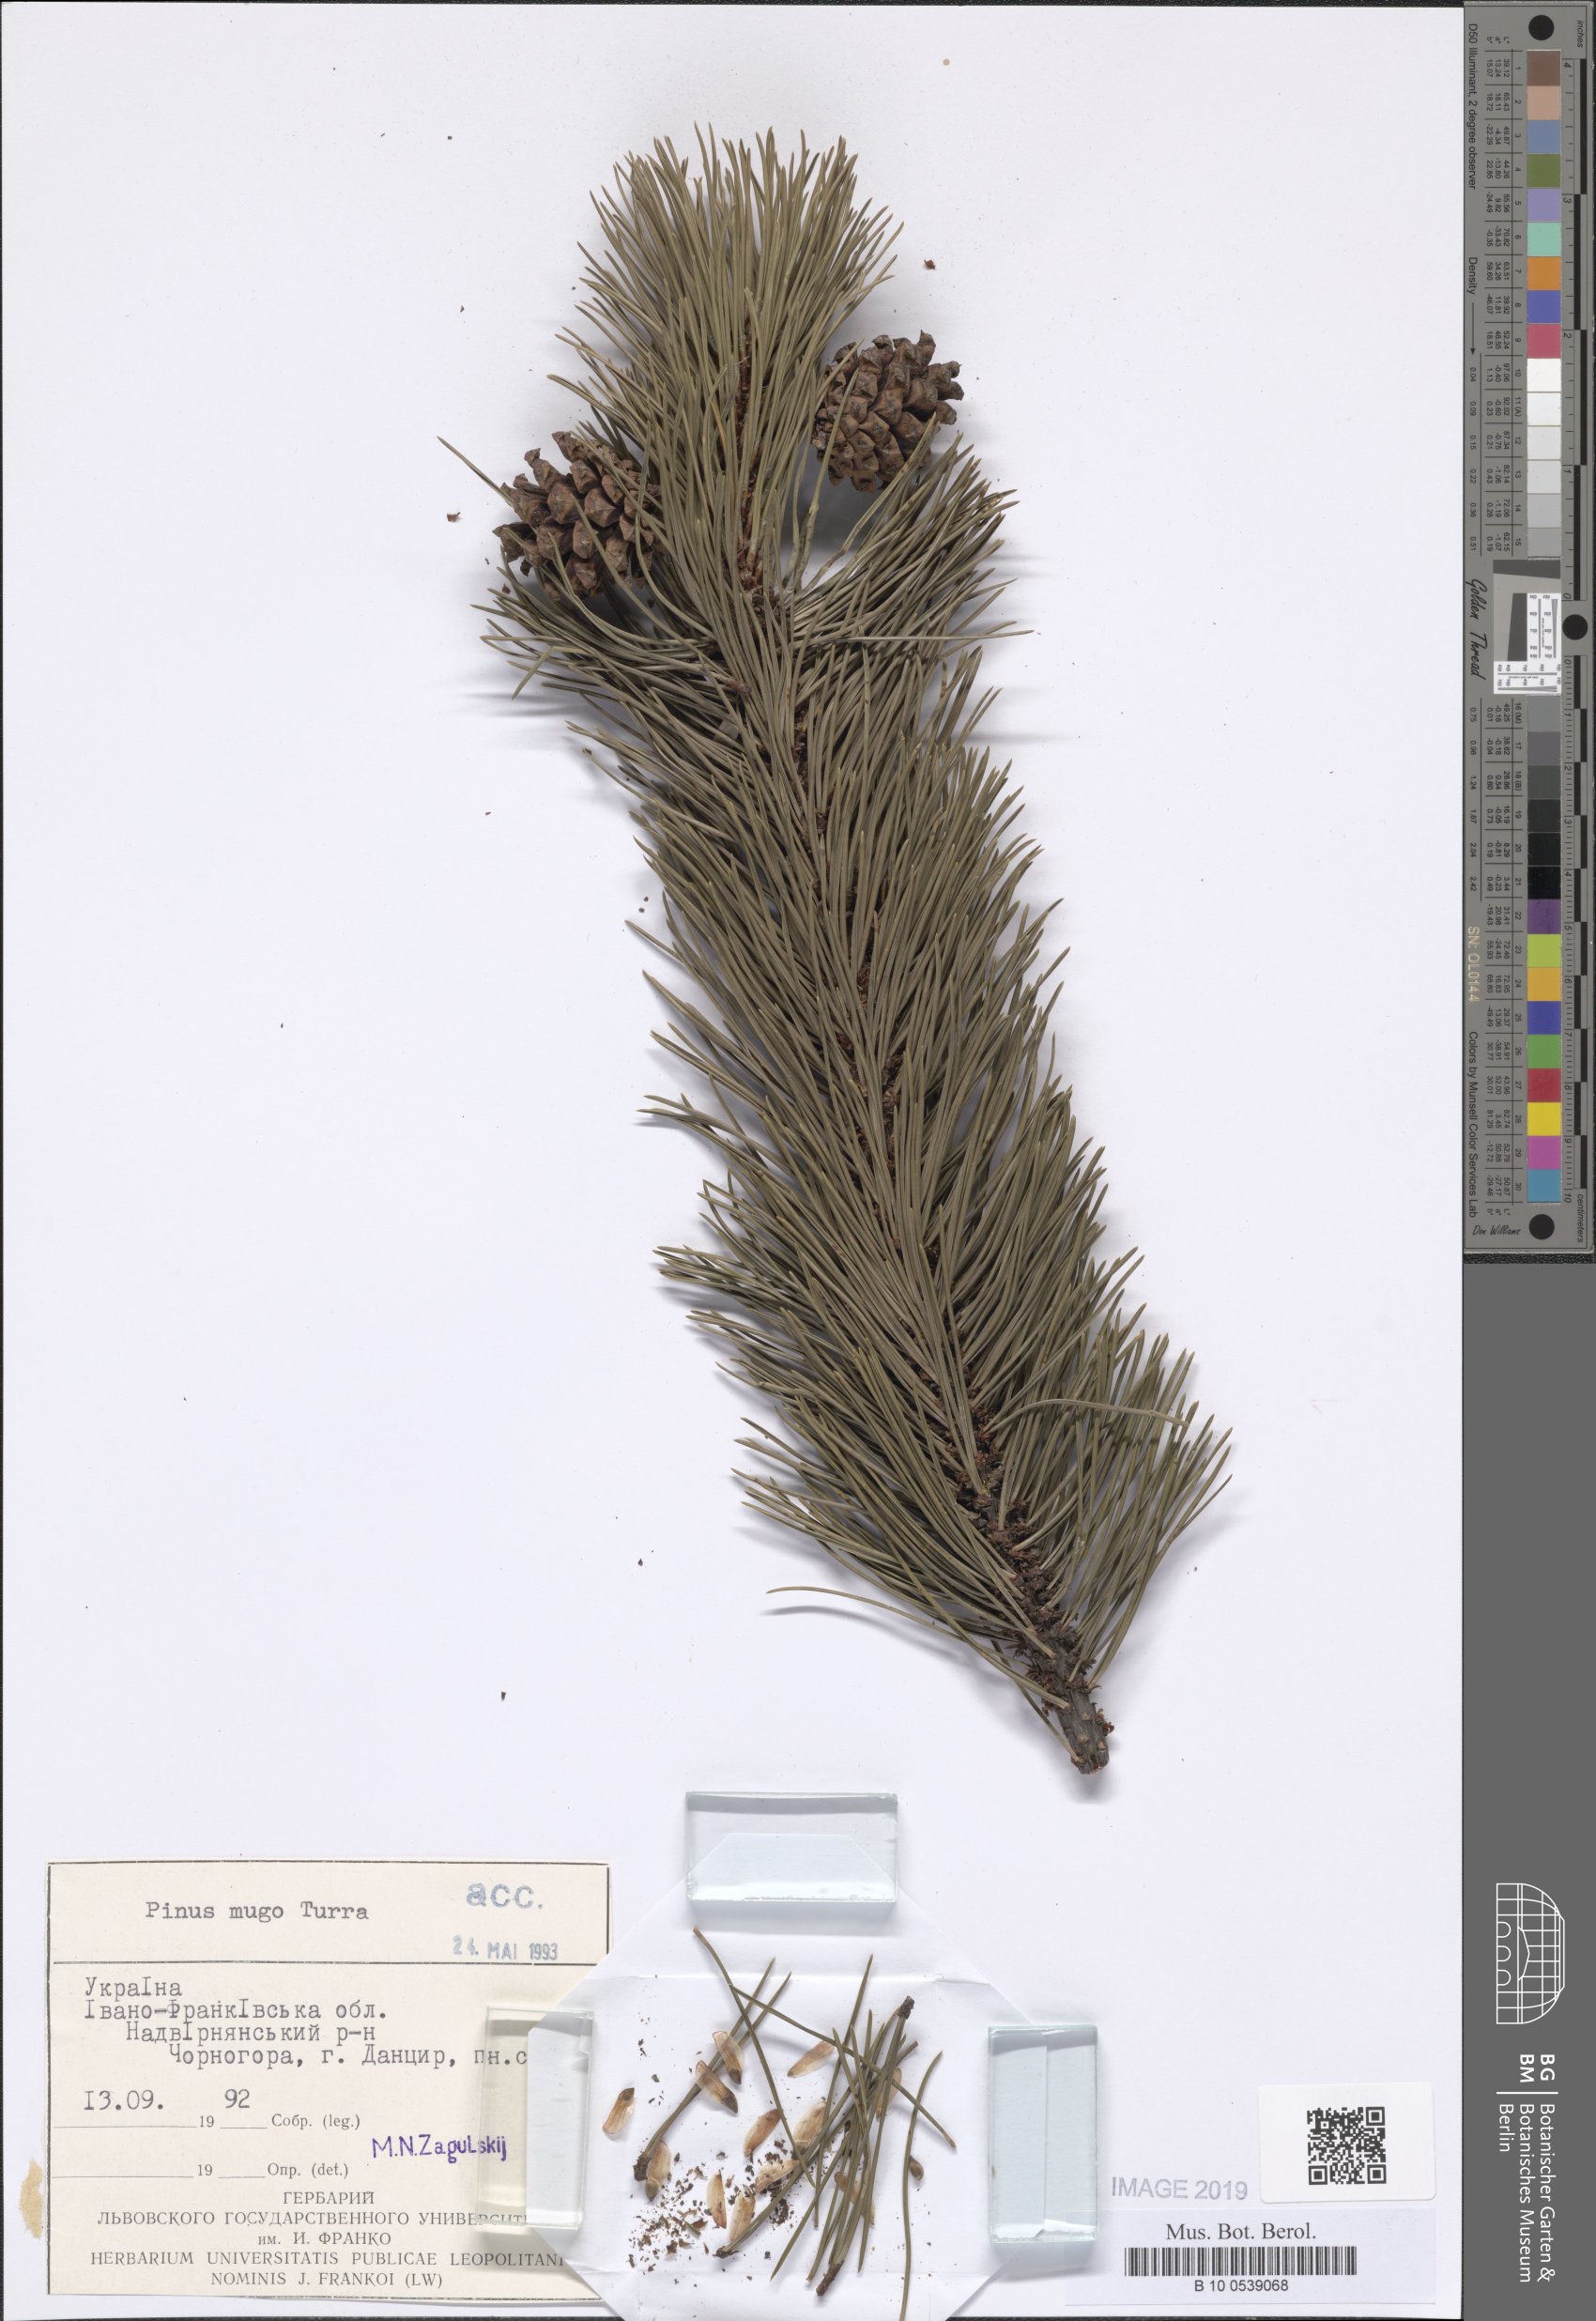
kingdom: Plantae
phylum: Tracheophyta
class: Pinopsida
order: Pinales
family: Pinaceae
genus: Pinus
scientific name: Pinus mugo
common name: Mugo pine
